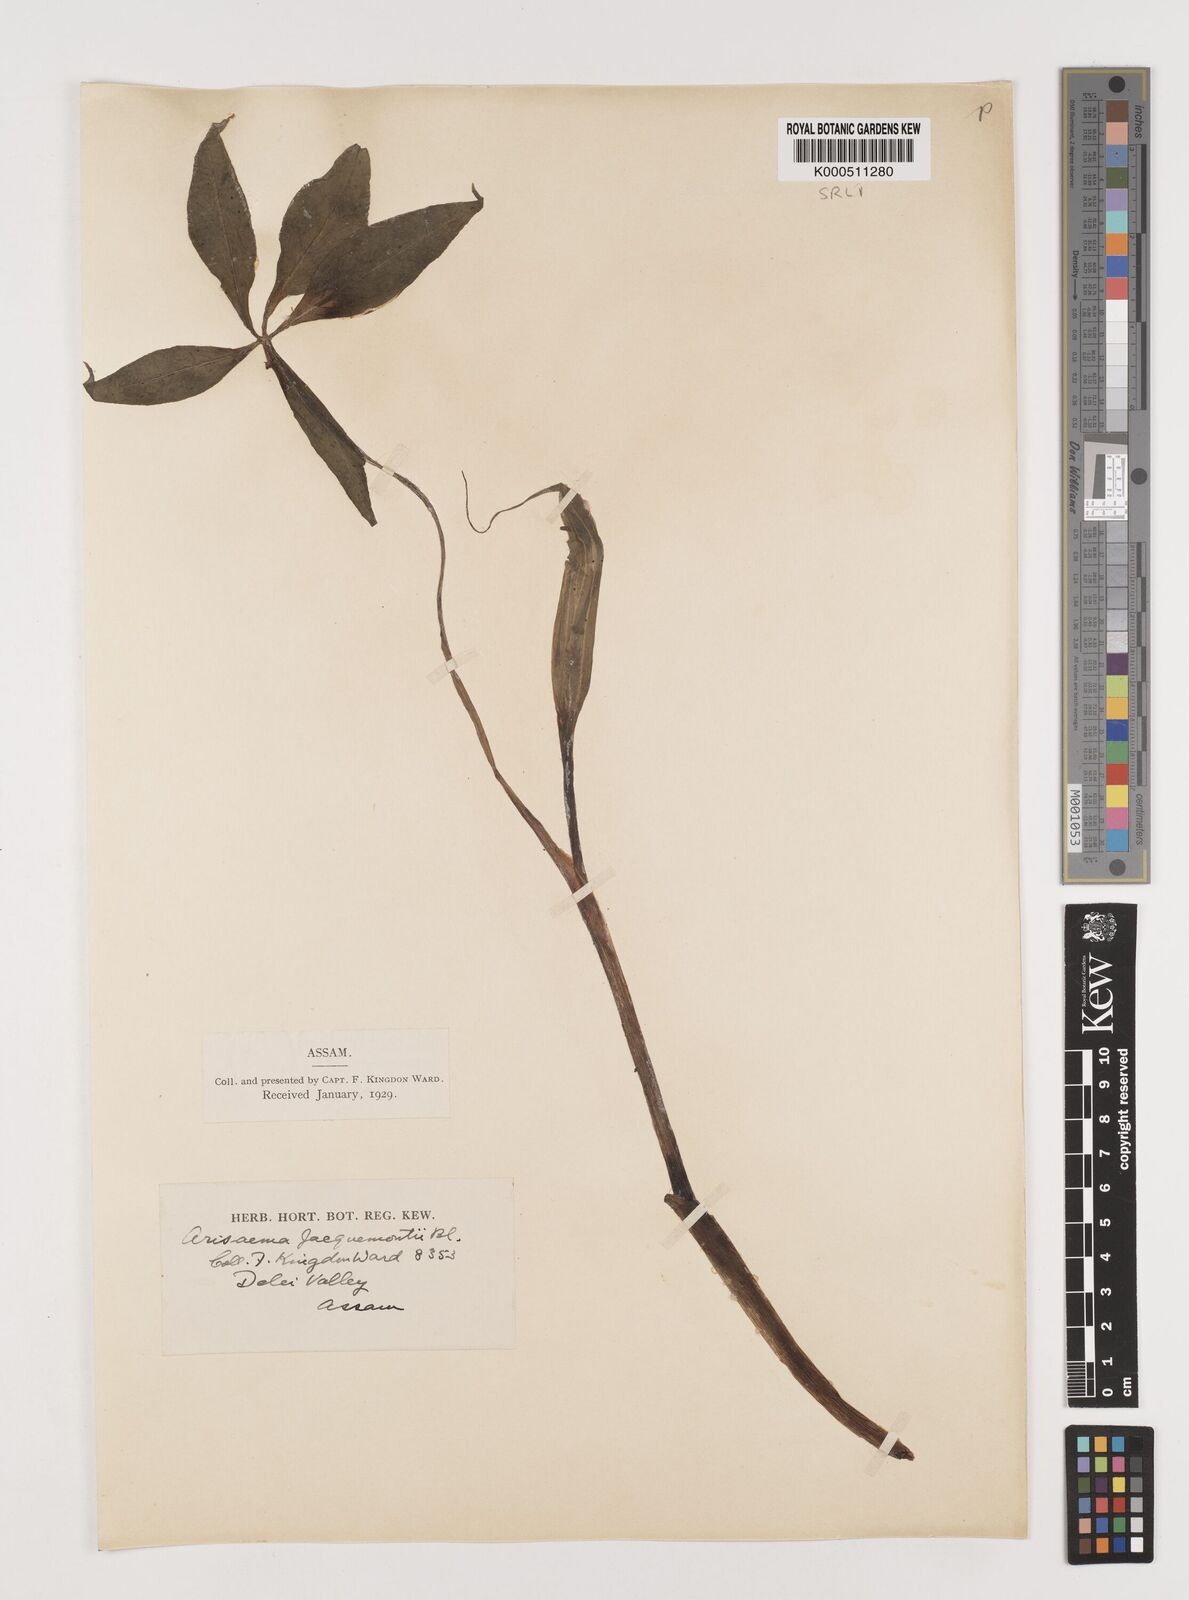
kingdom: Plantae
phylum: Tracheophyta
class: Liliopsida
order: Alismatales
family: Araceae
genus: Arisaema
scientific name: Arisaema jacquemontii
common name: Jacquemont's cobra-lily
